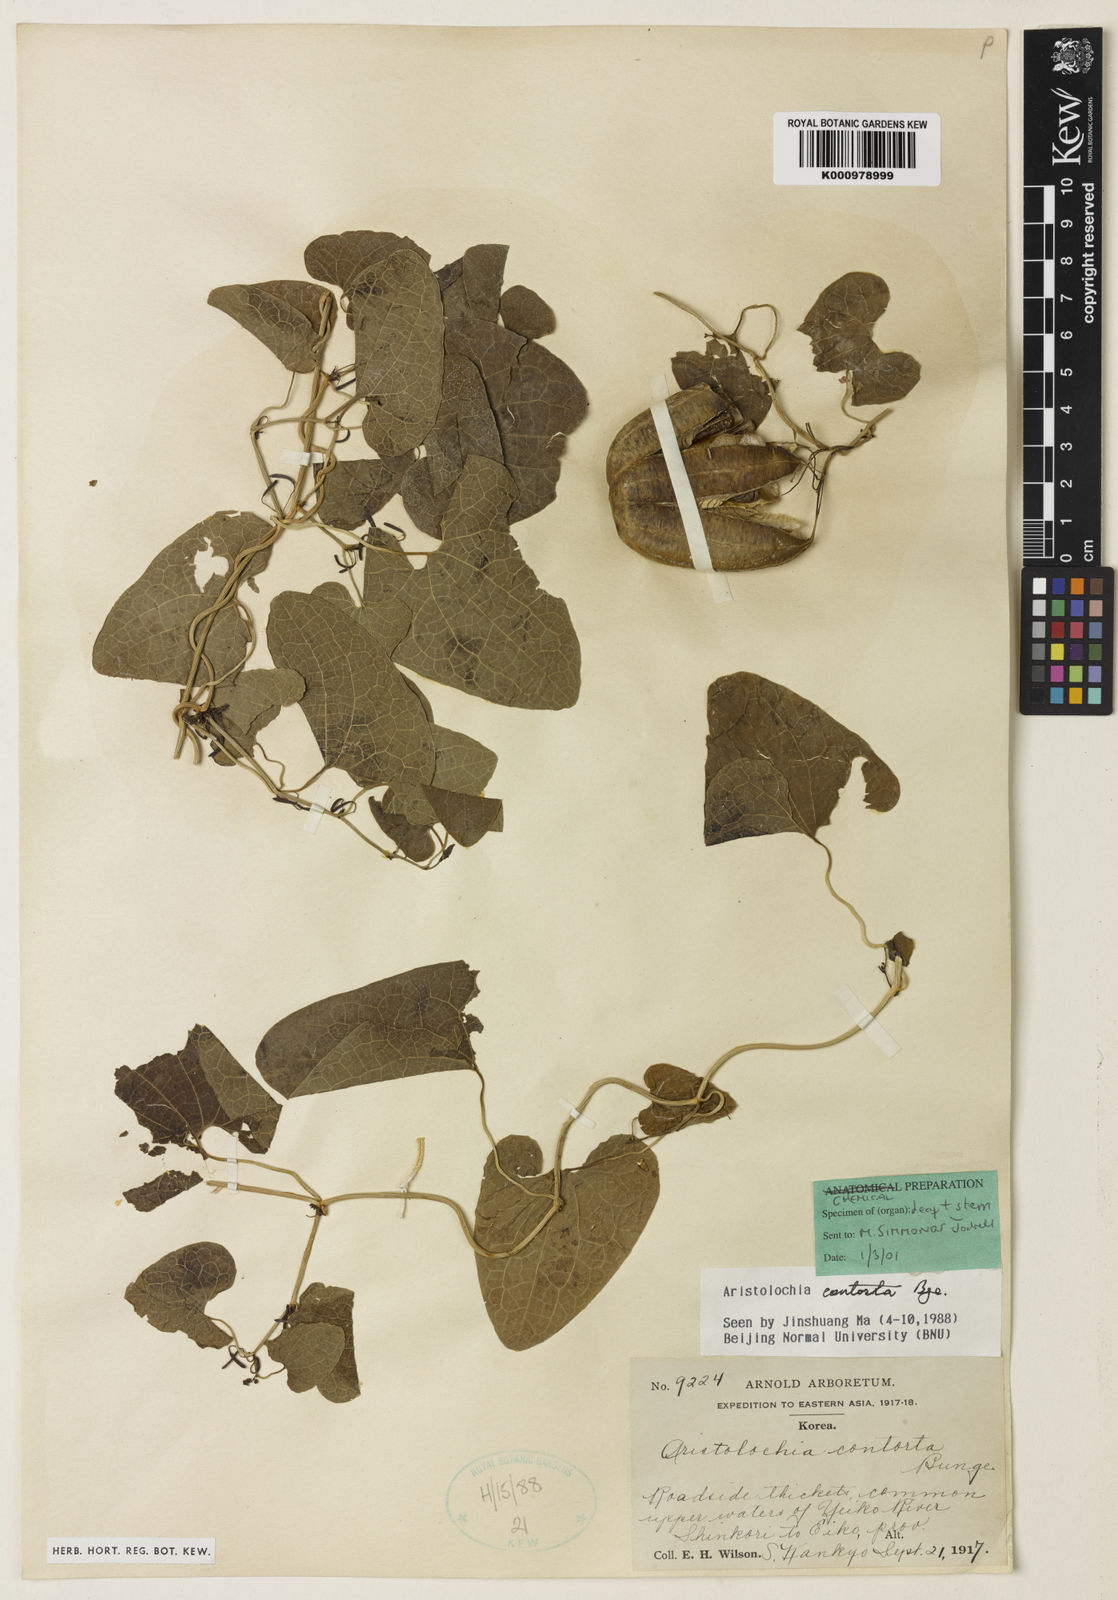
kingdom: Plantae
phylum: Tracheophyta
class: Magnoliopsida
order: Piperales
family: Aristolochiaceae
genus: Aristolochia
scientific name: Aristolochia contorta
